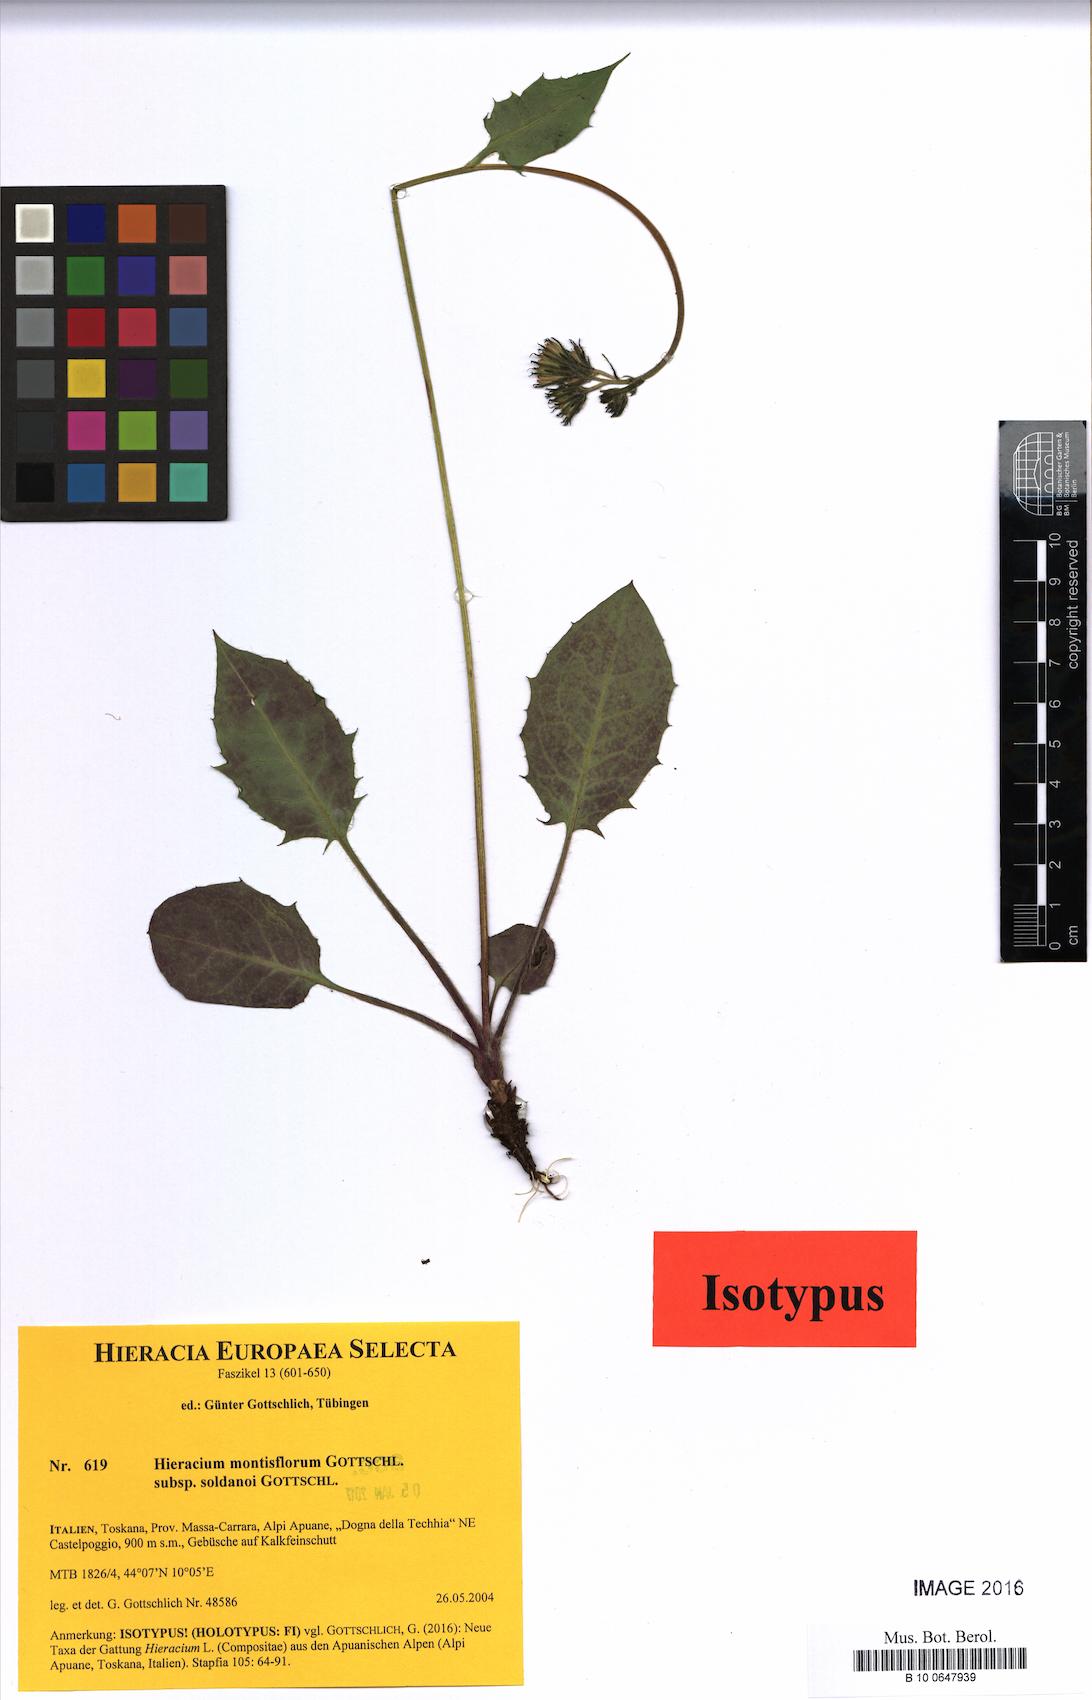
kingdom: Plantae
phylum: Tracheophyta
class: Magnoliopsida
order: Asterales
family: Asteraceae
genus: Hieracium
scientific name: Hieracium montis-florum
